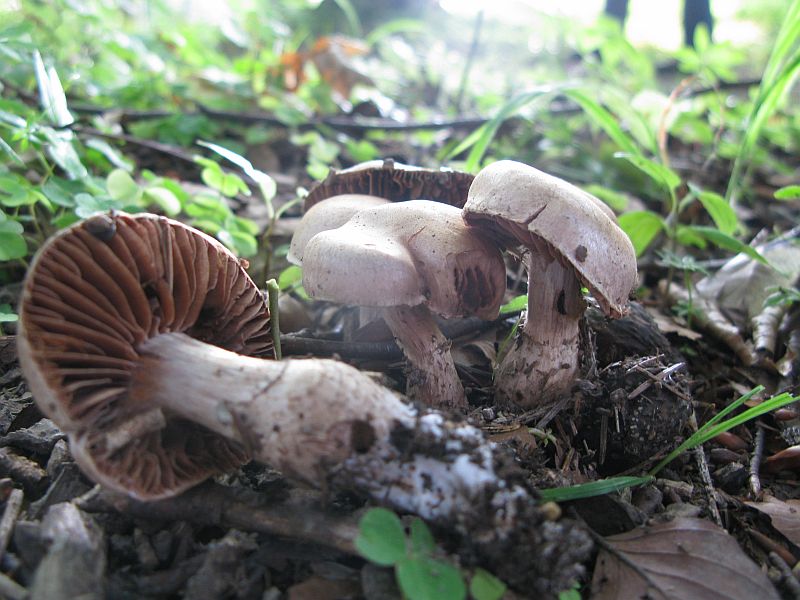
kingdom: Fungi
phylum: Basidiomycota
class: Agaricomycetes
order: Agaricales
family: Cortinariaceae
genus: Cortinarius
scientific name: Cortinarius torvus
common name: champignonagtig slørhat
